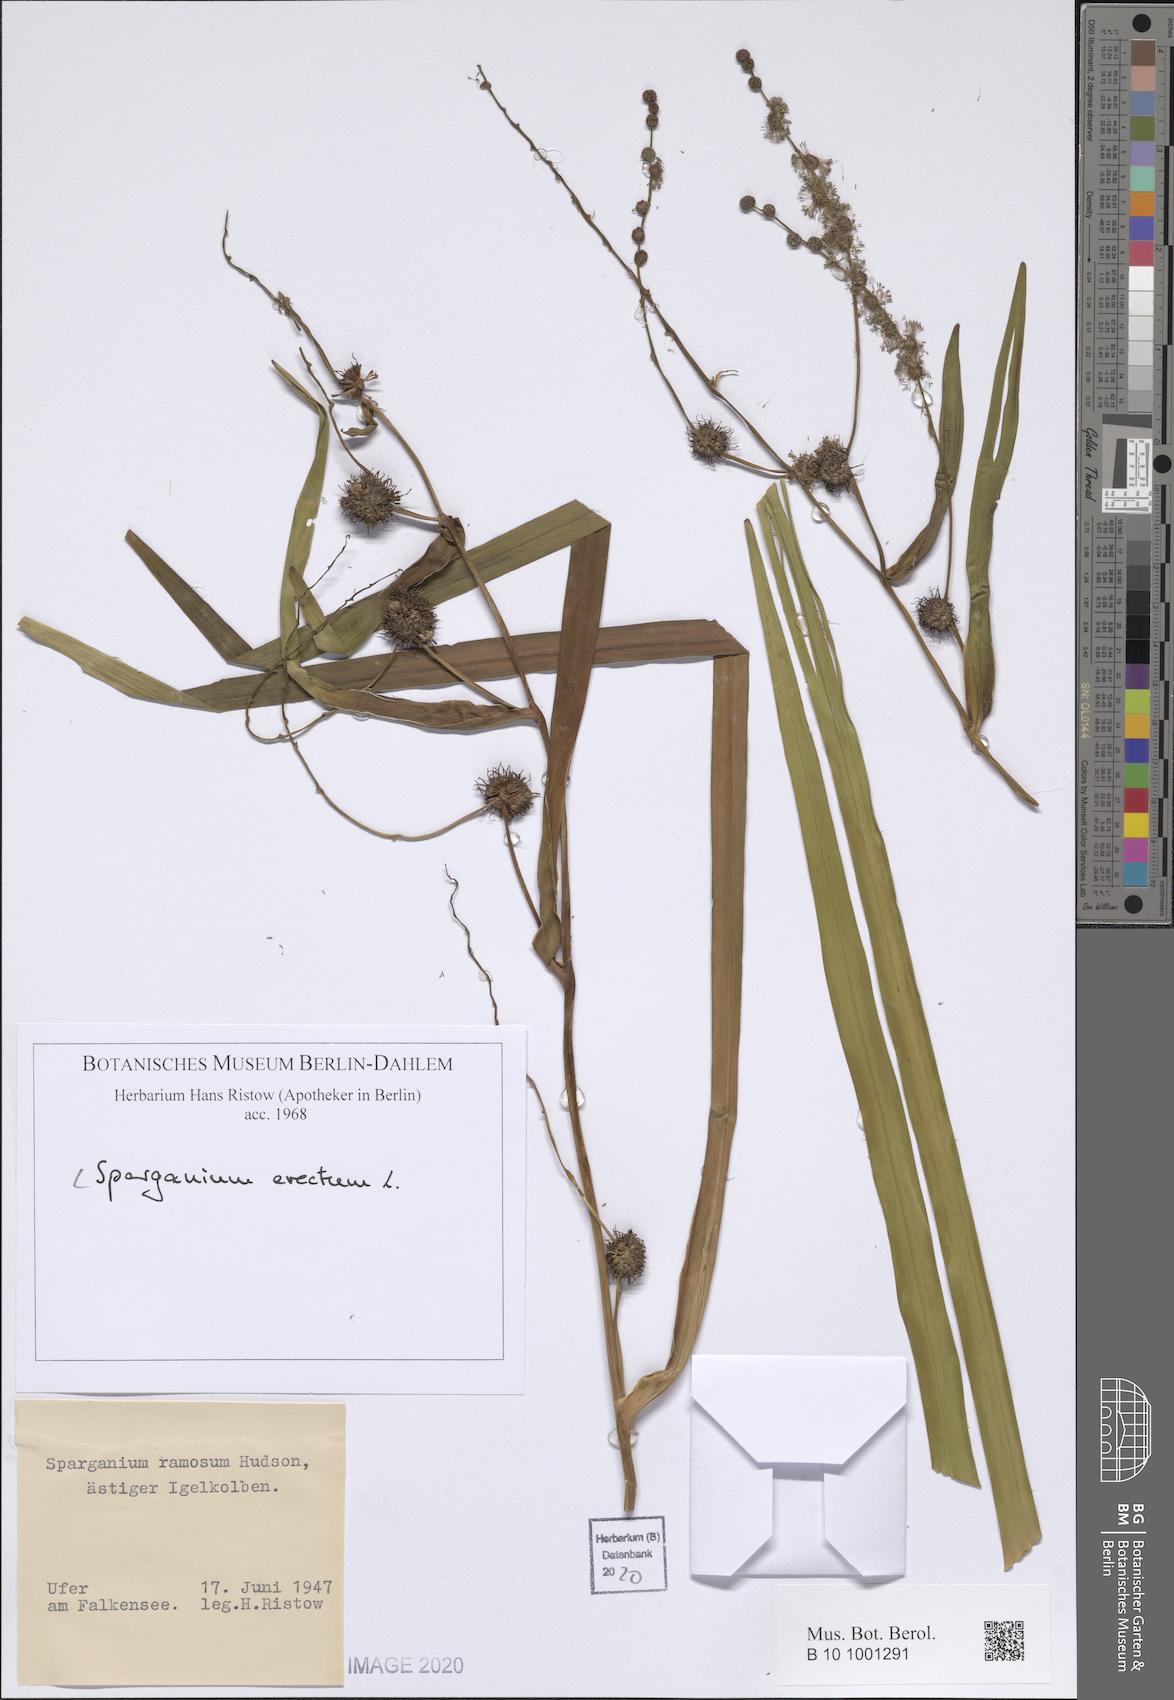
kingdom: Plantae
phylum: Tracheophyta
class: Liliopsida
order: Poales
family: Typhaceae
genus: Sparganium
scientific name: Sparganium erectum
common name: Branched bur-reed
